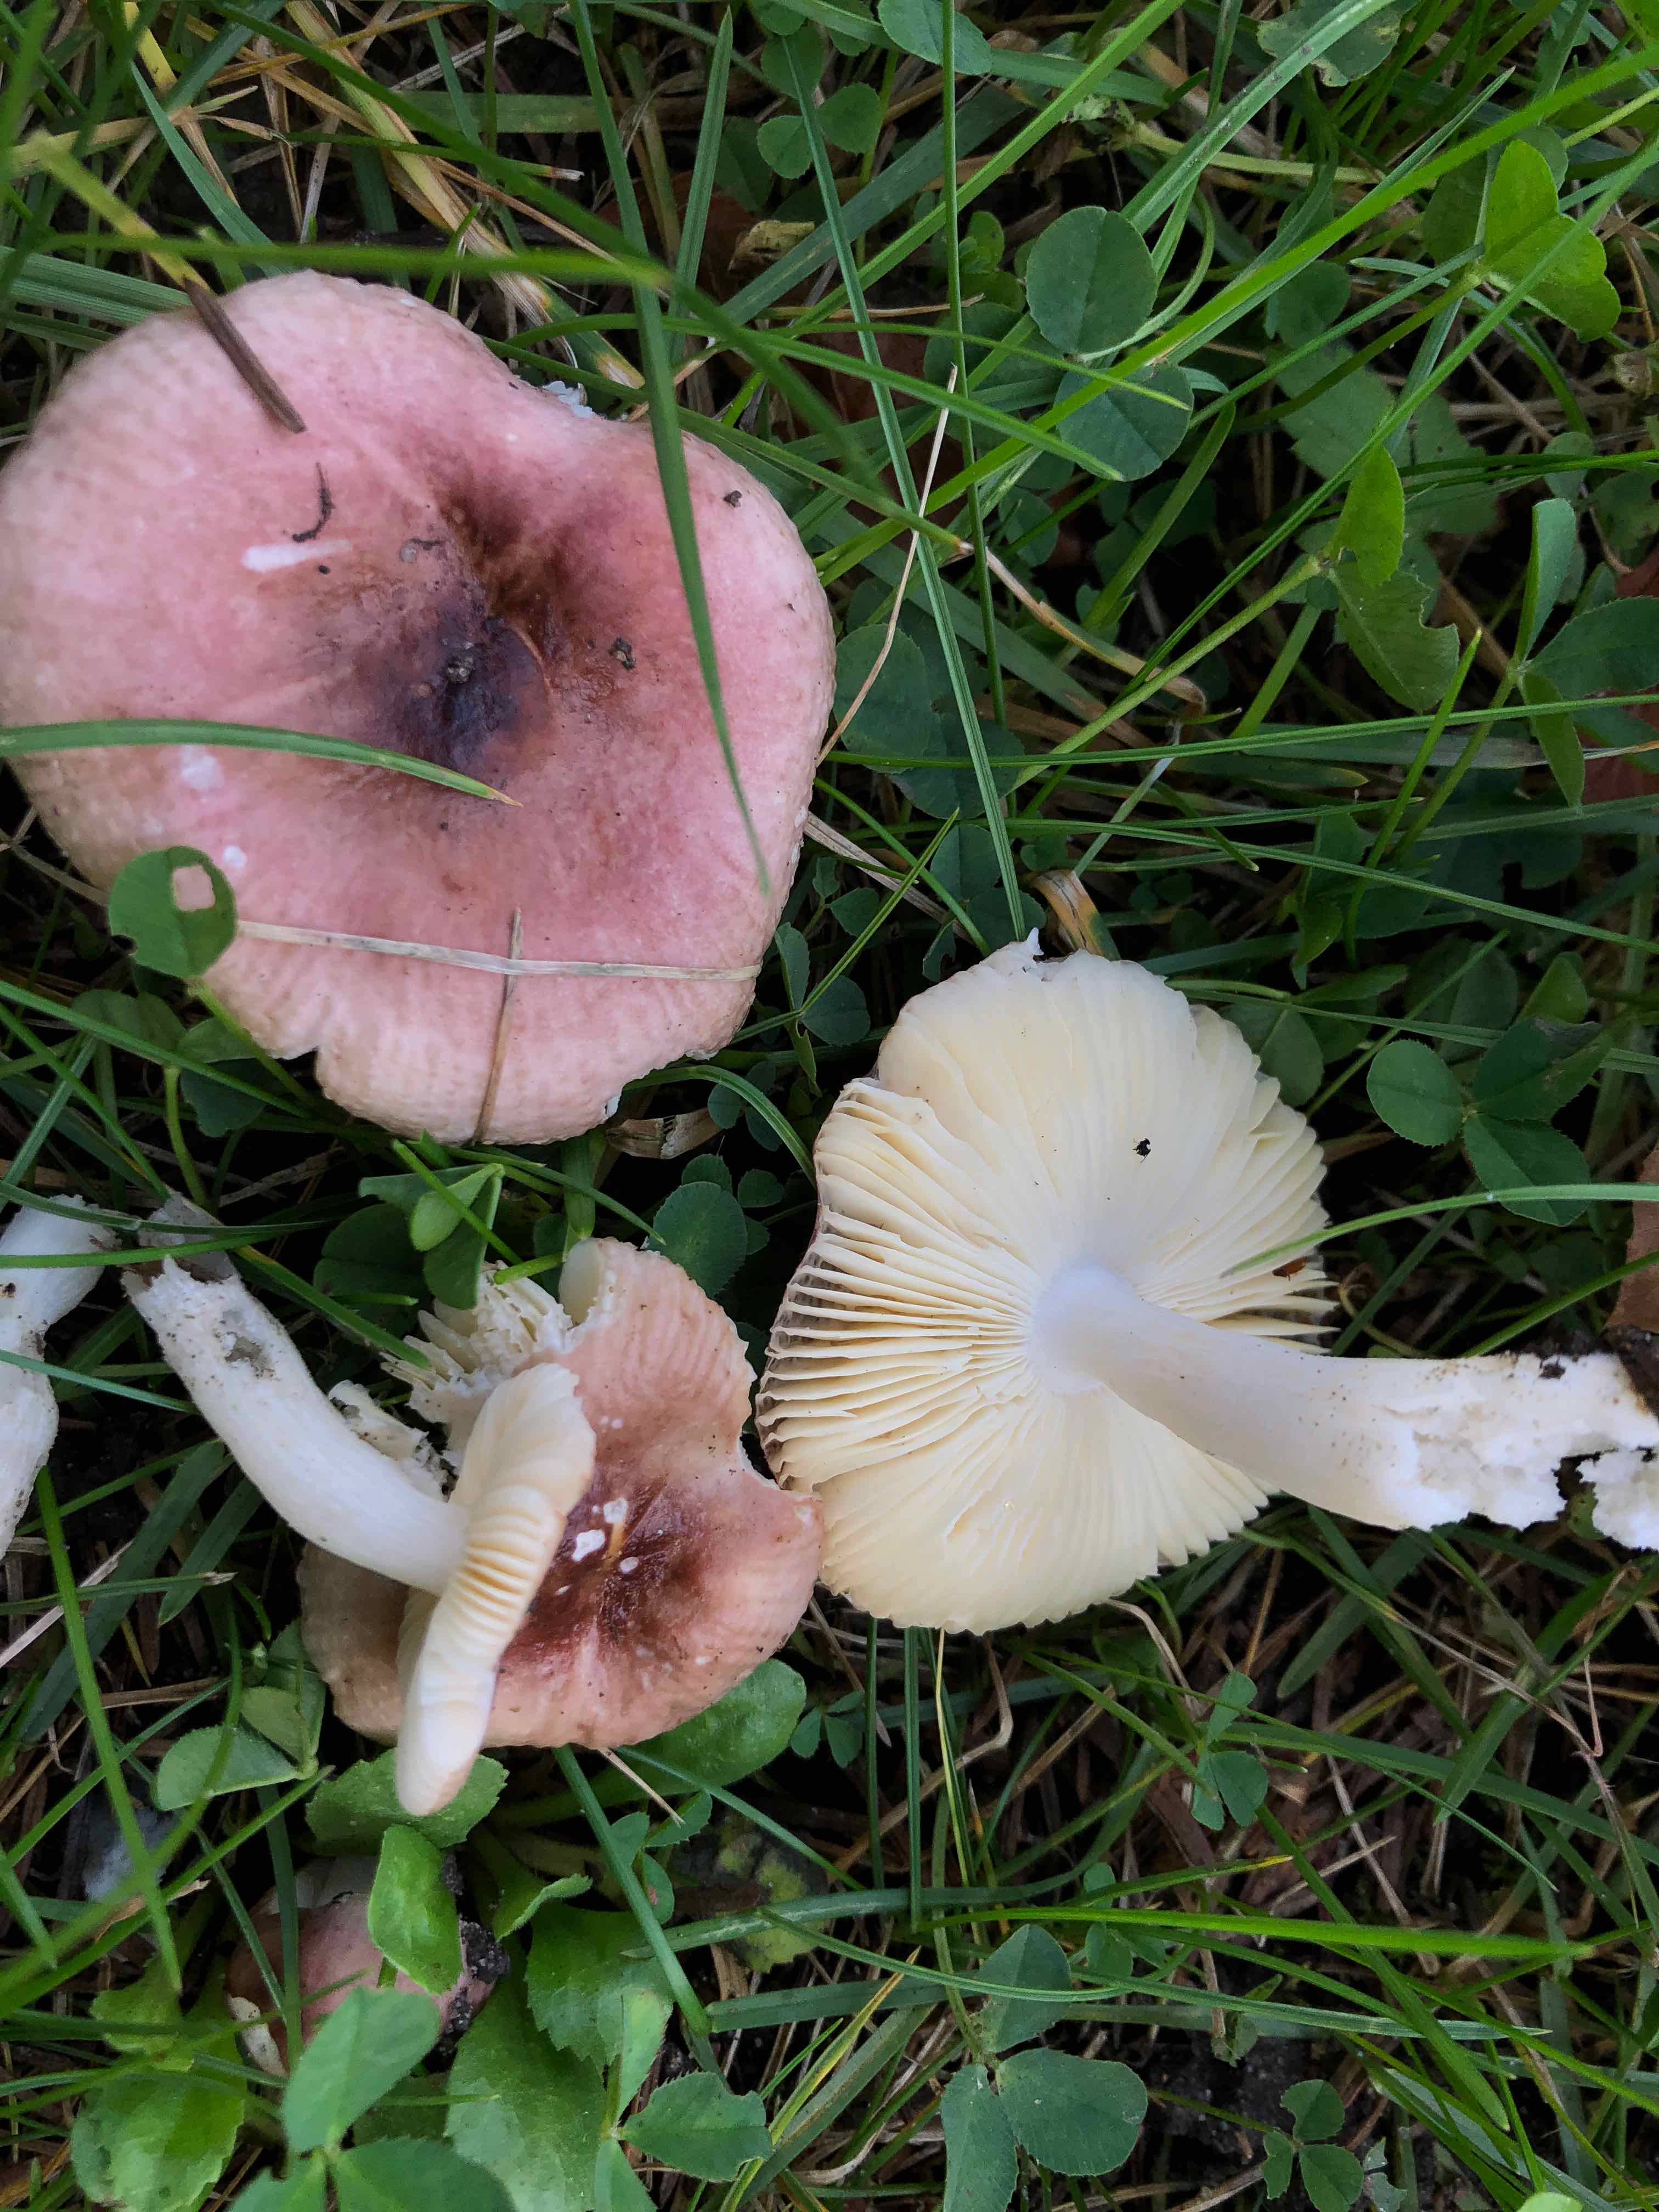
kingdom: Fungi
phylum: Basidiomycota
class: Agaricomycetes
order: Russulales
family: Russulaceae
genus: Russula
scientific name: Russula
